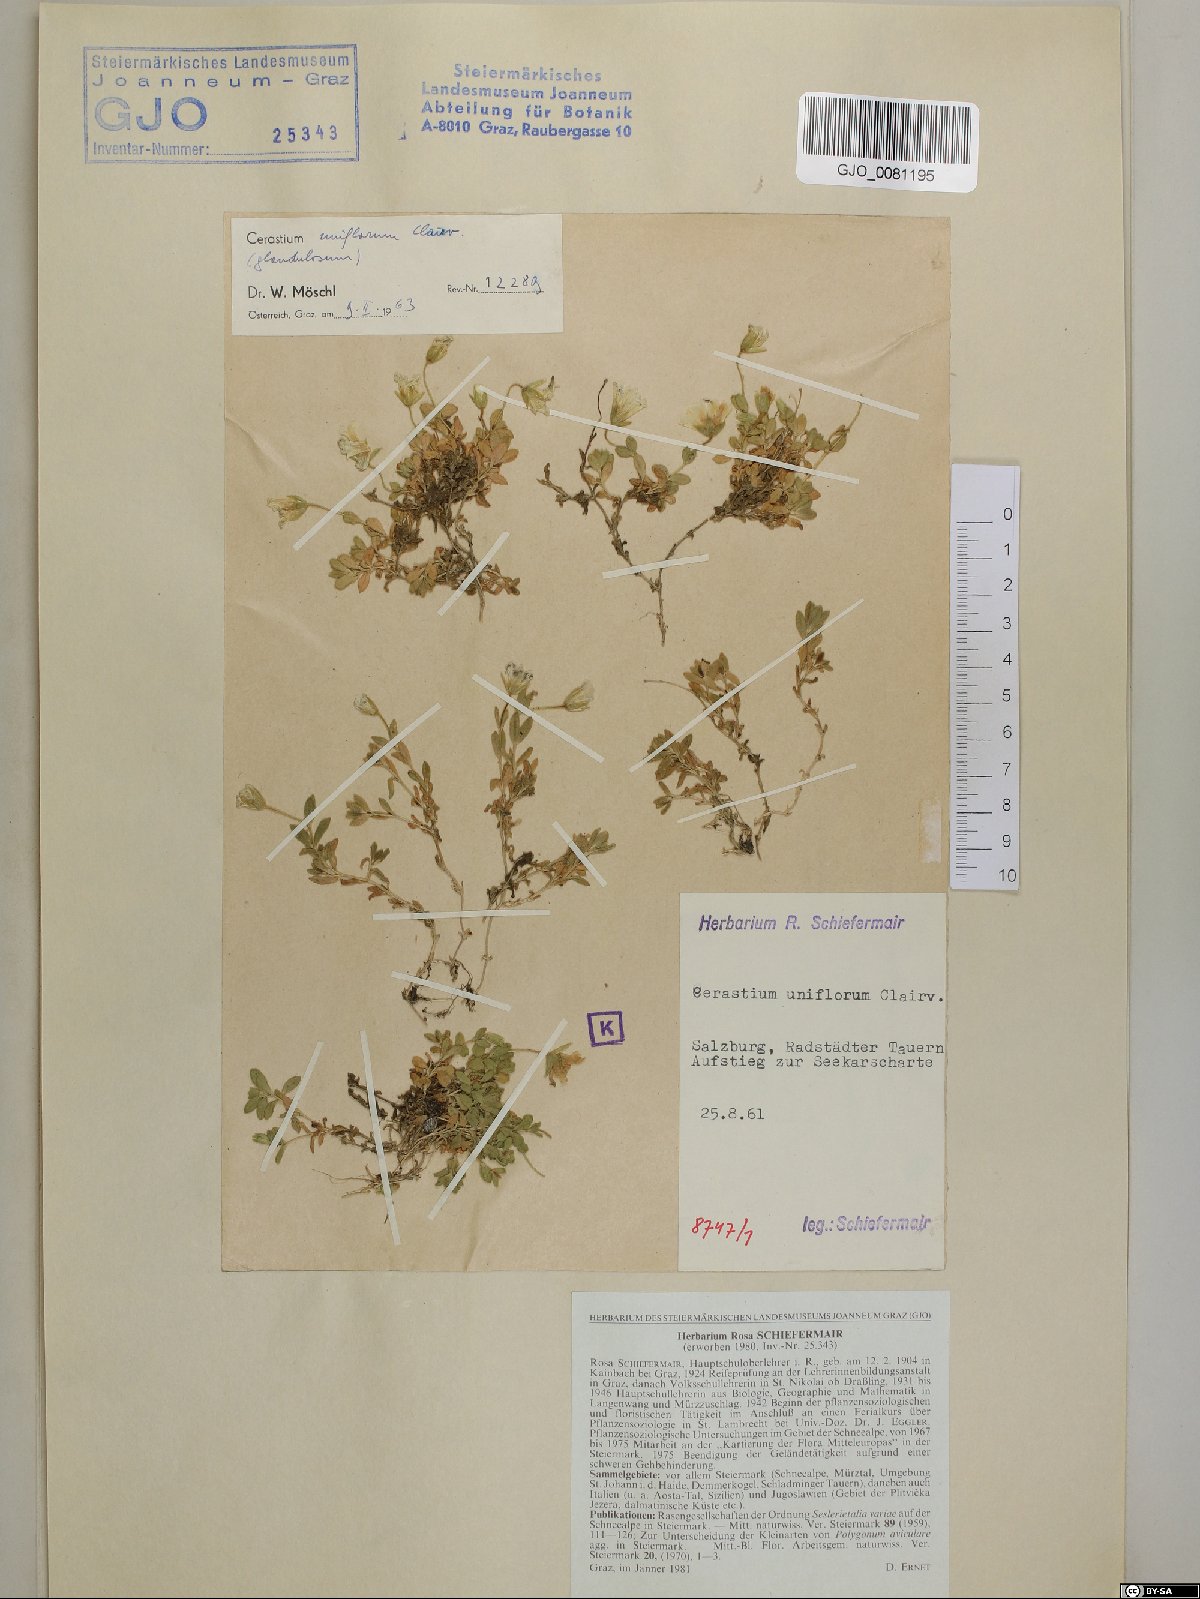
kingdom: Plantae
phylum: Tracheophyta
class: Magnoliopsida
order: Caryophyllales
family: Caryophyllaceae
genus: Cerastium
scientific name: Cerastium uniflorum
